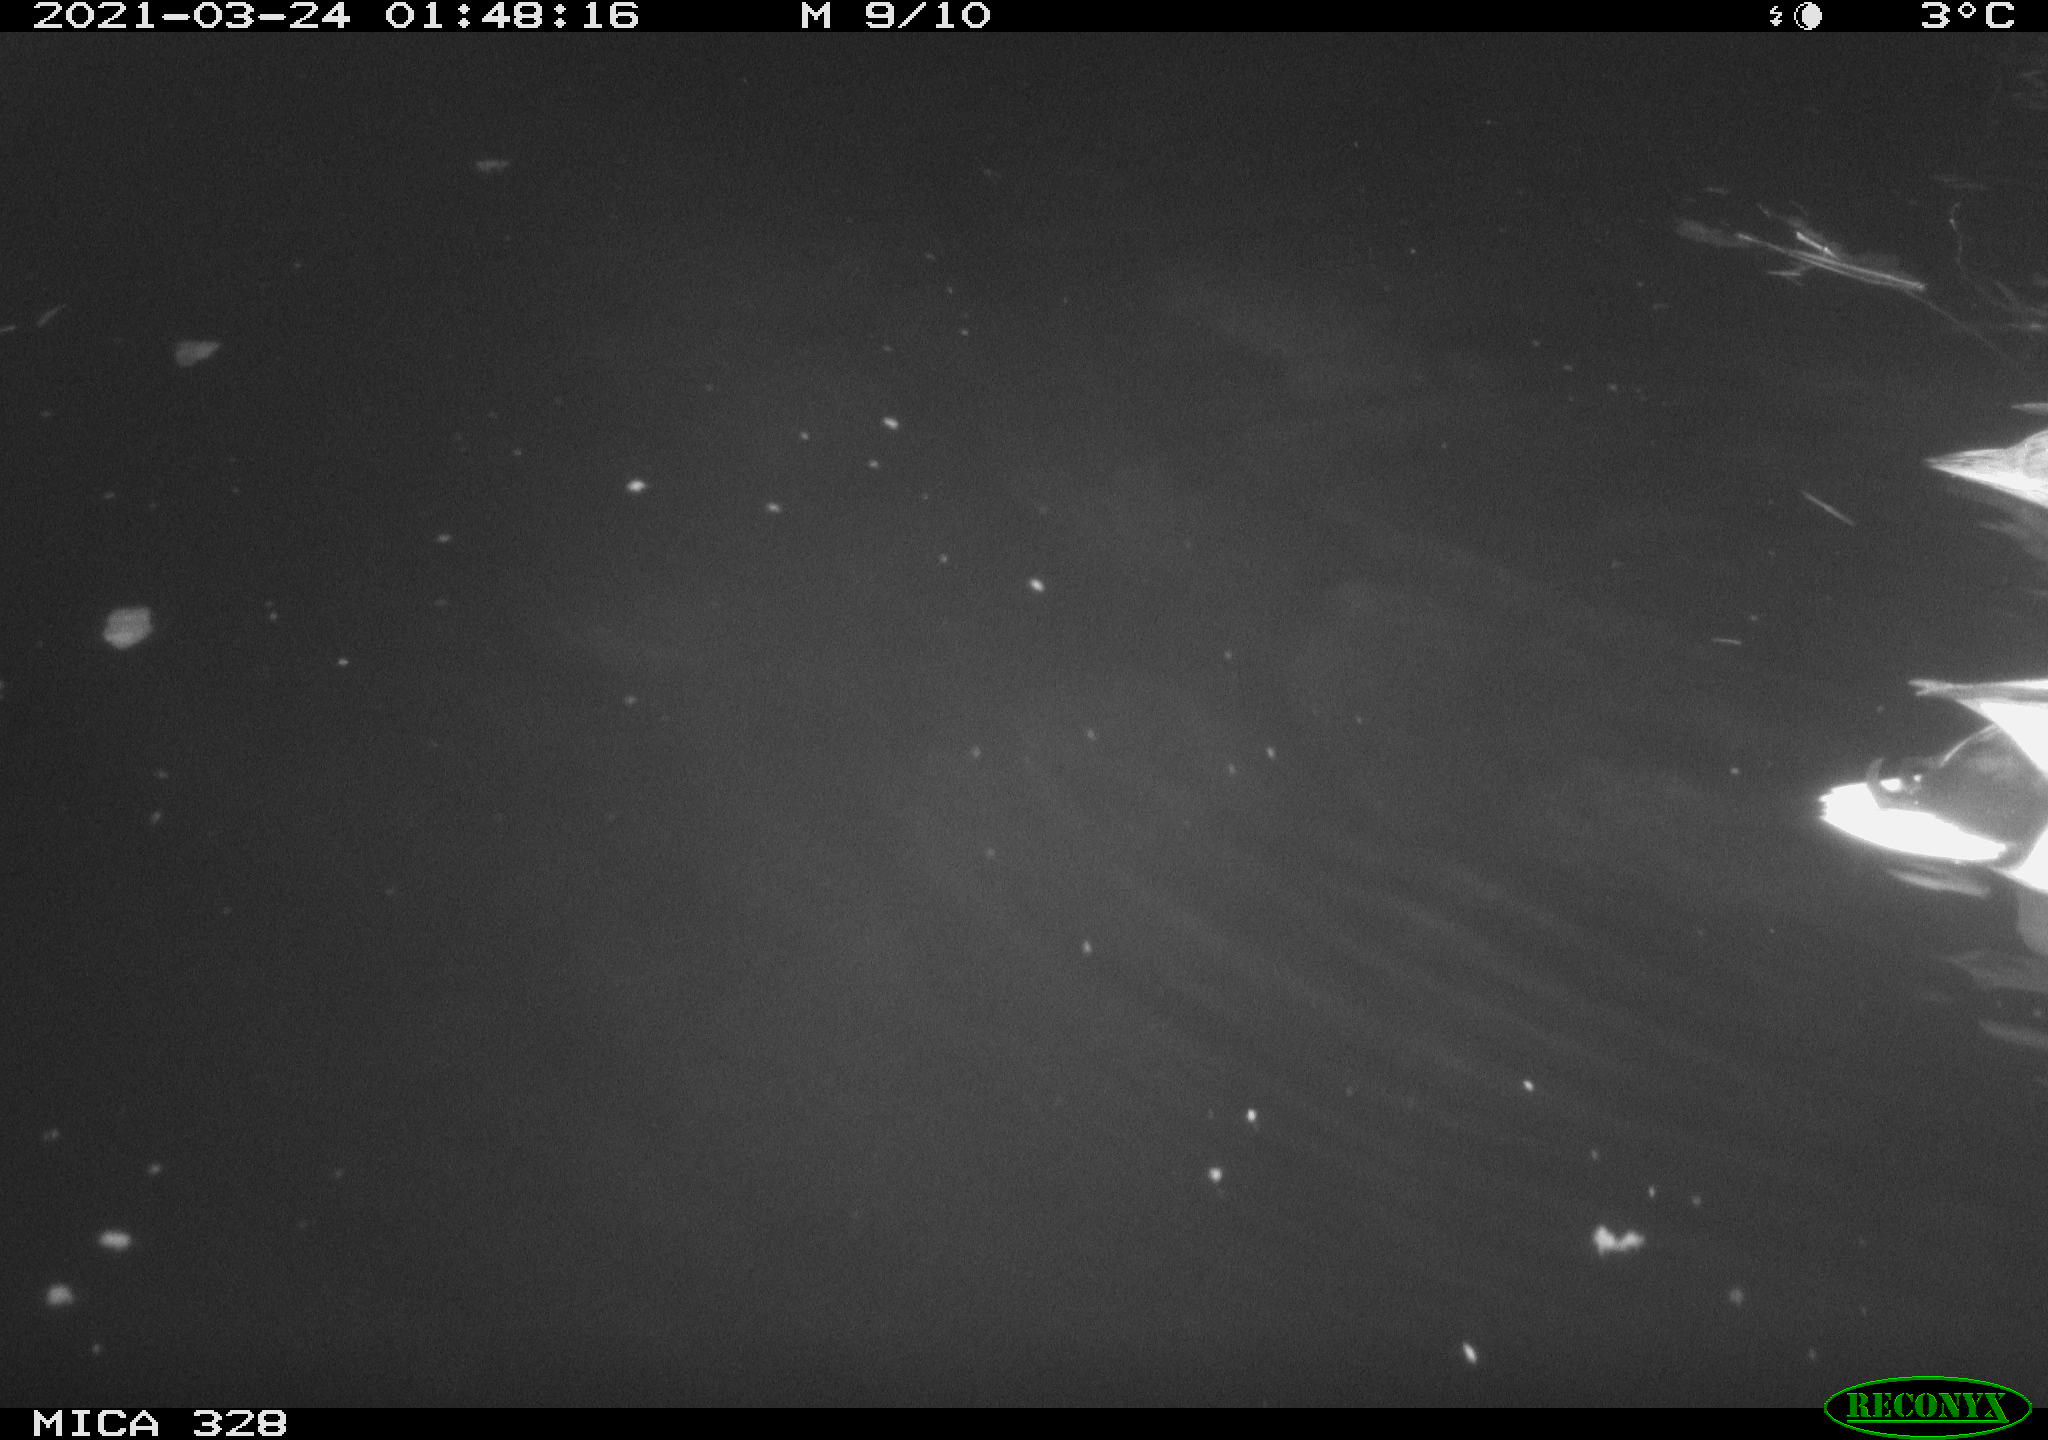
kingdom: Animalia
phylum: Chordata
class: Aves
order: Anseriformes
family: Anatidae
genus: Anas
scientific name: Anas platyrhynchos
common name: Mallard
